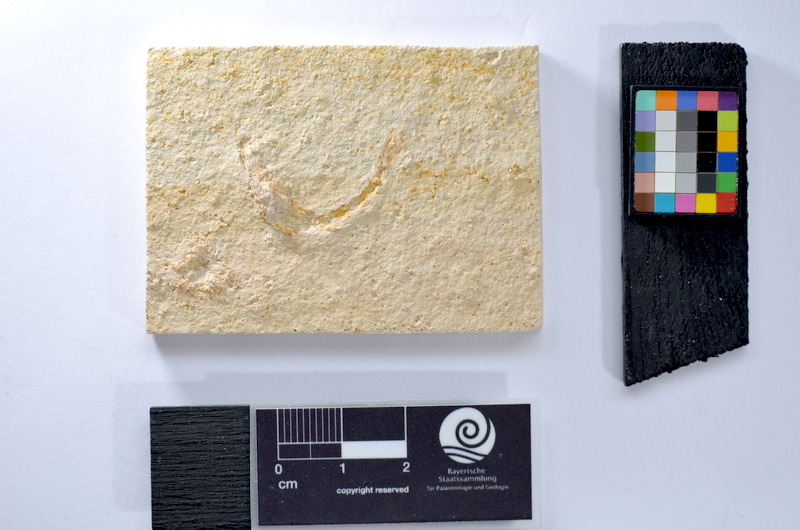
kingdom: Animalia
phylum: Chordata
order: Salmoniformes
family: Orthogonikleithridae
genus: Leptolepides
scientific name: Leptolepides
